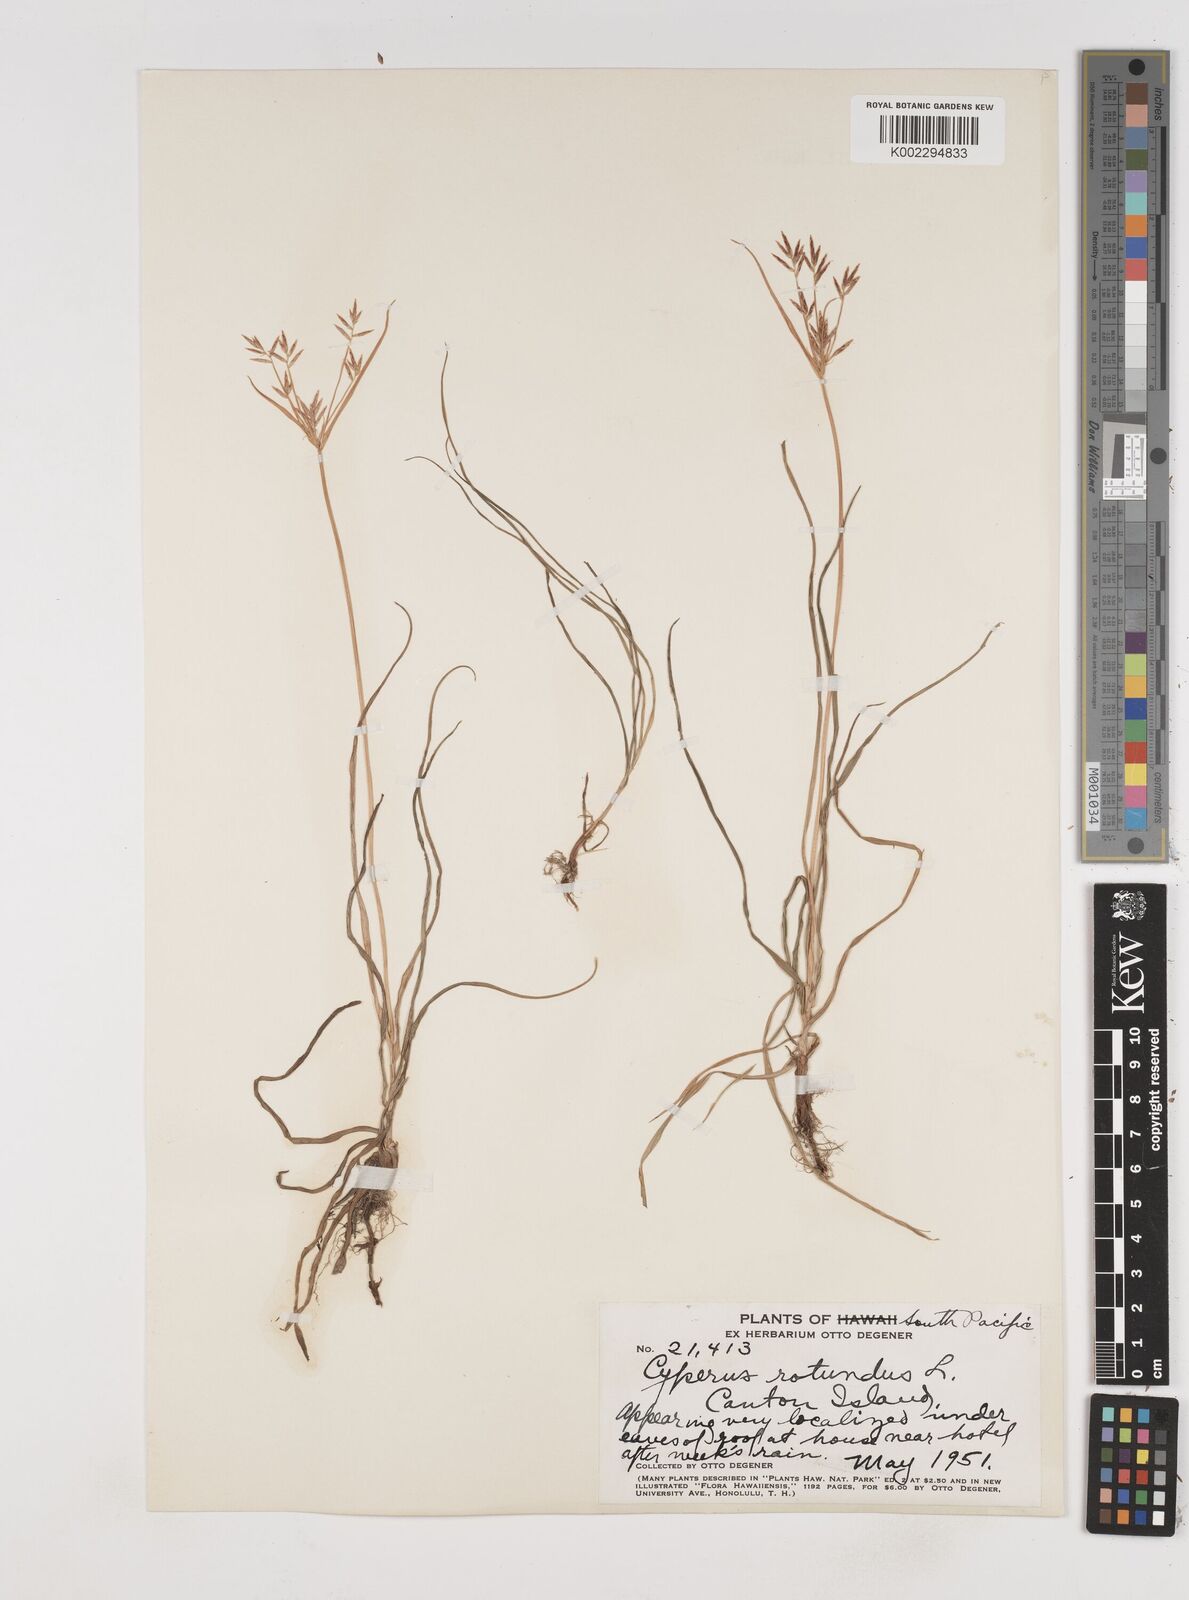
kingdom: Plantae
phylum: Tracheophyta
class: Liliopsida
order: Poales
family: Cyperaceae
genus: Cyperus
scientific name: Cyperus rotundus
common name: Nutgrass
